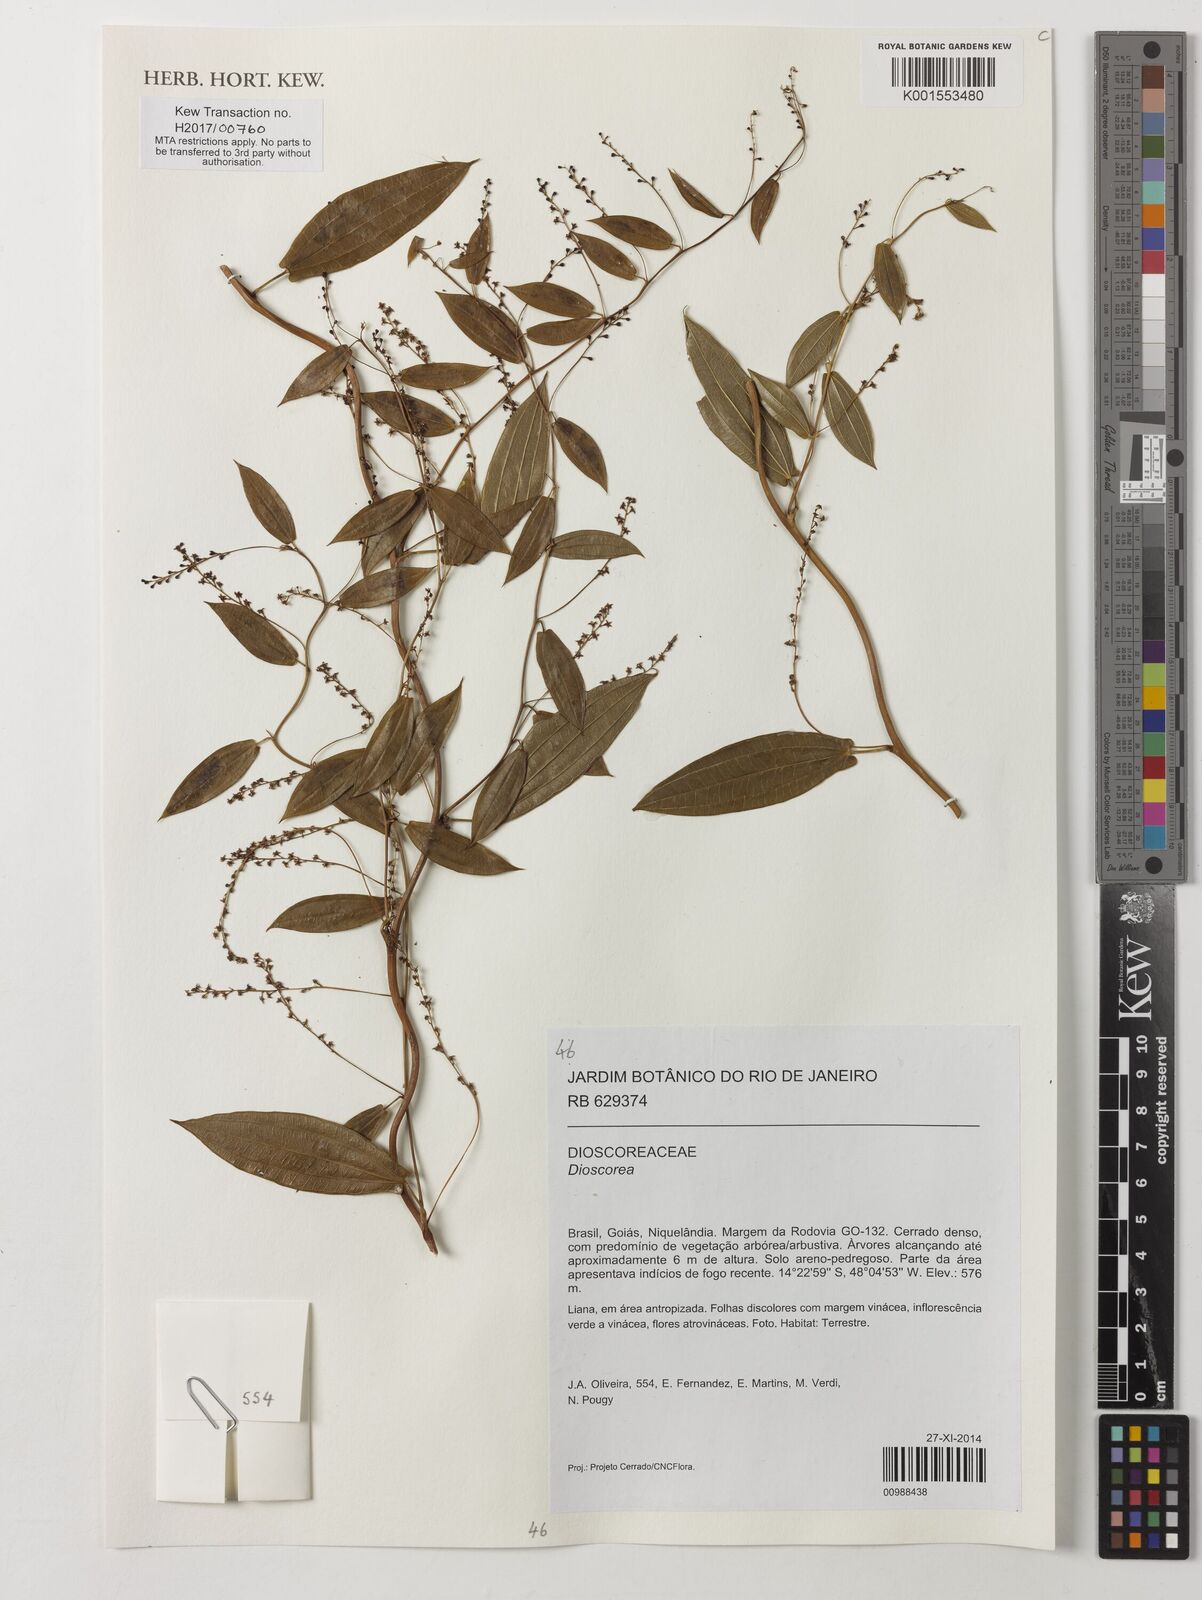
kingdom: Plantae
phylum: Tracheophyta
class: Liliopsida
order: Dioscoreales
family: Dioscoreaceae
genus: Dioscorea
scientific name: Dioscorea
